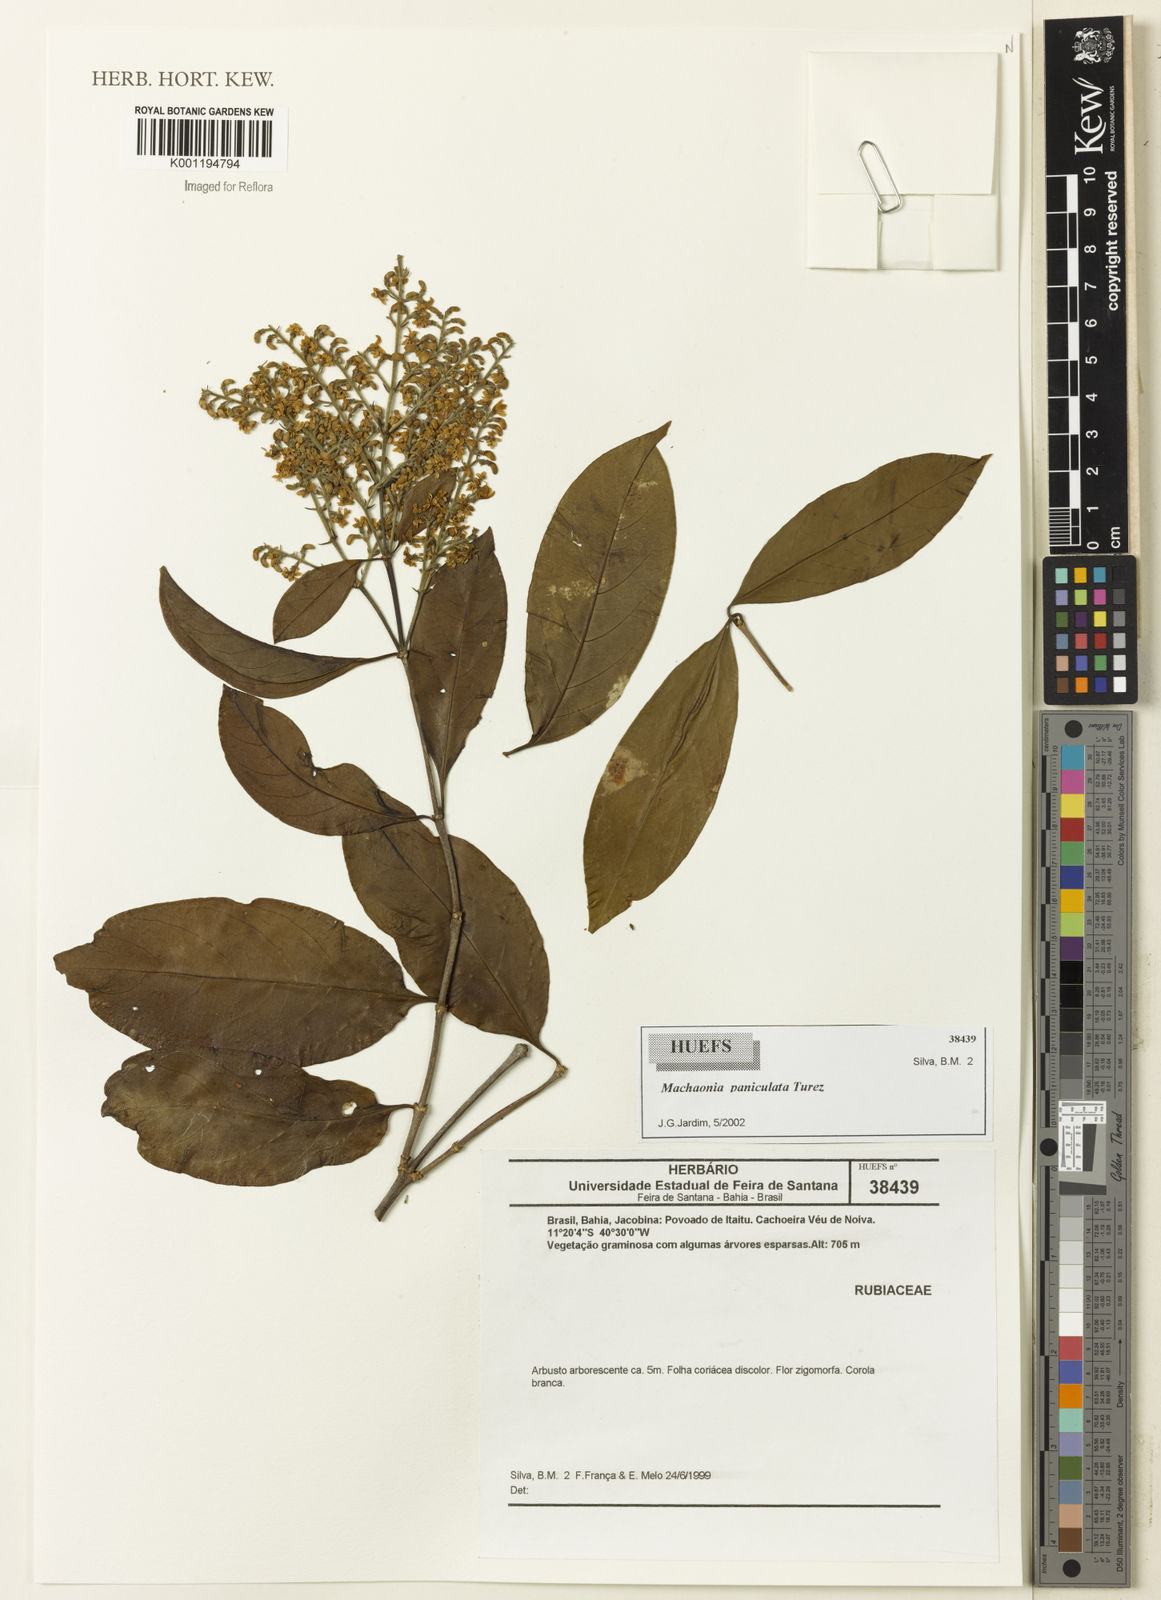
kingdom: Plantae
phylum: Tracheophyta
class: Magnoliopsida
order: Gentianales
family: Rubiaceae
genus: Machaonia
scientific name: Machaonia
